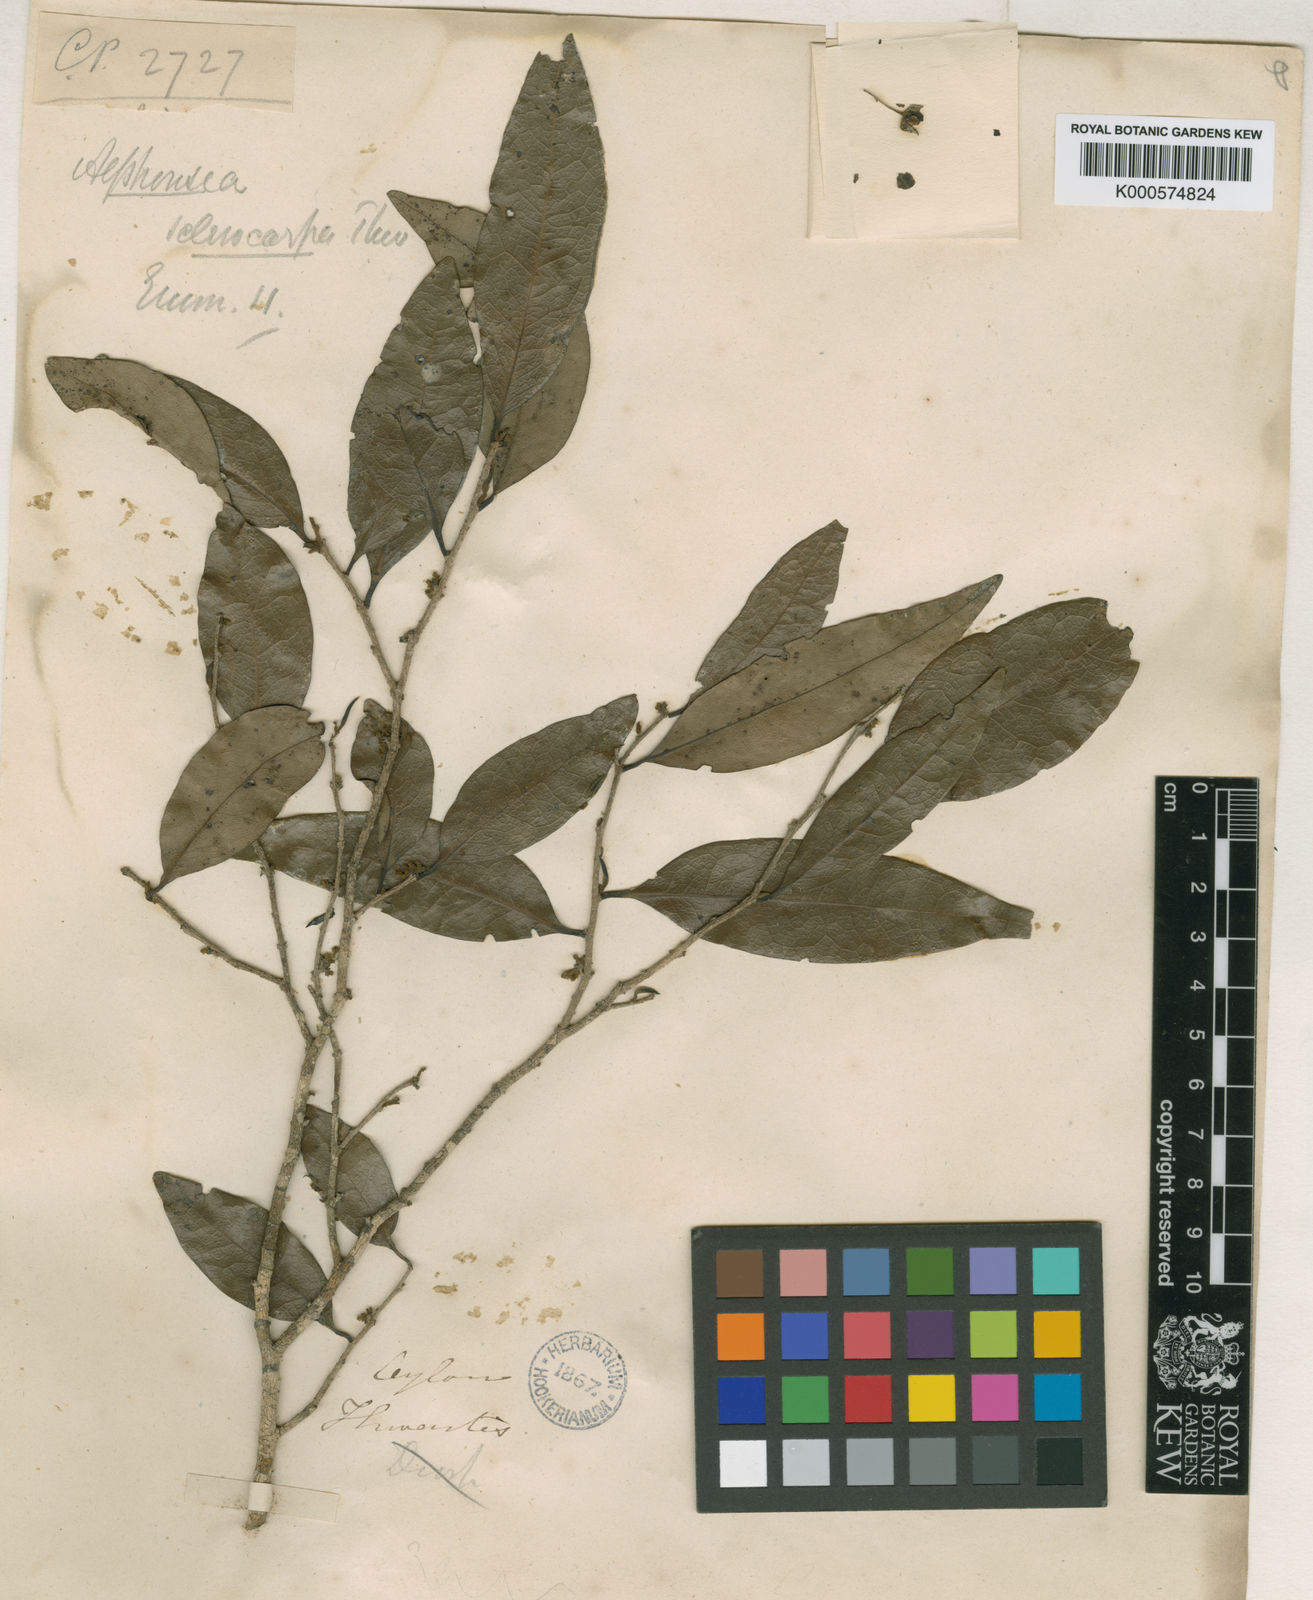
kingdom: Plantae
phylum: Tracheophyta
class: Magnoliopsida
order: Magnoliales
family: Annonaceae
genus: Alphonsea
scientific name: Alphonsea lutea
